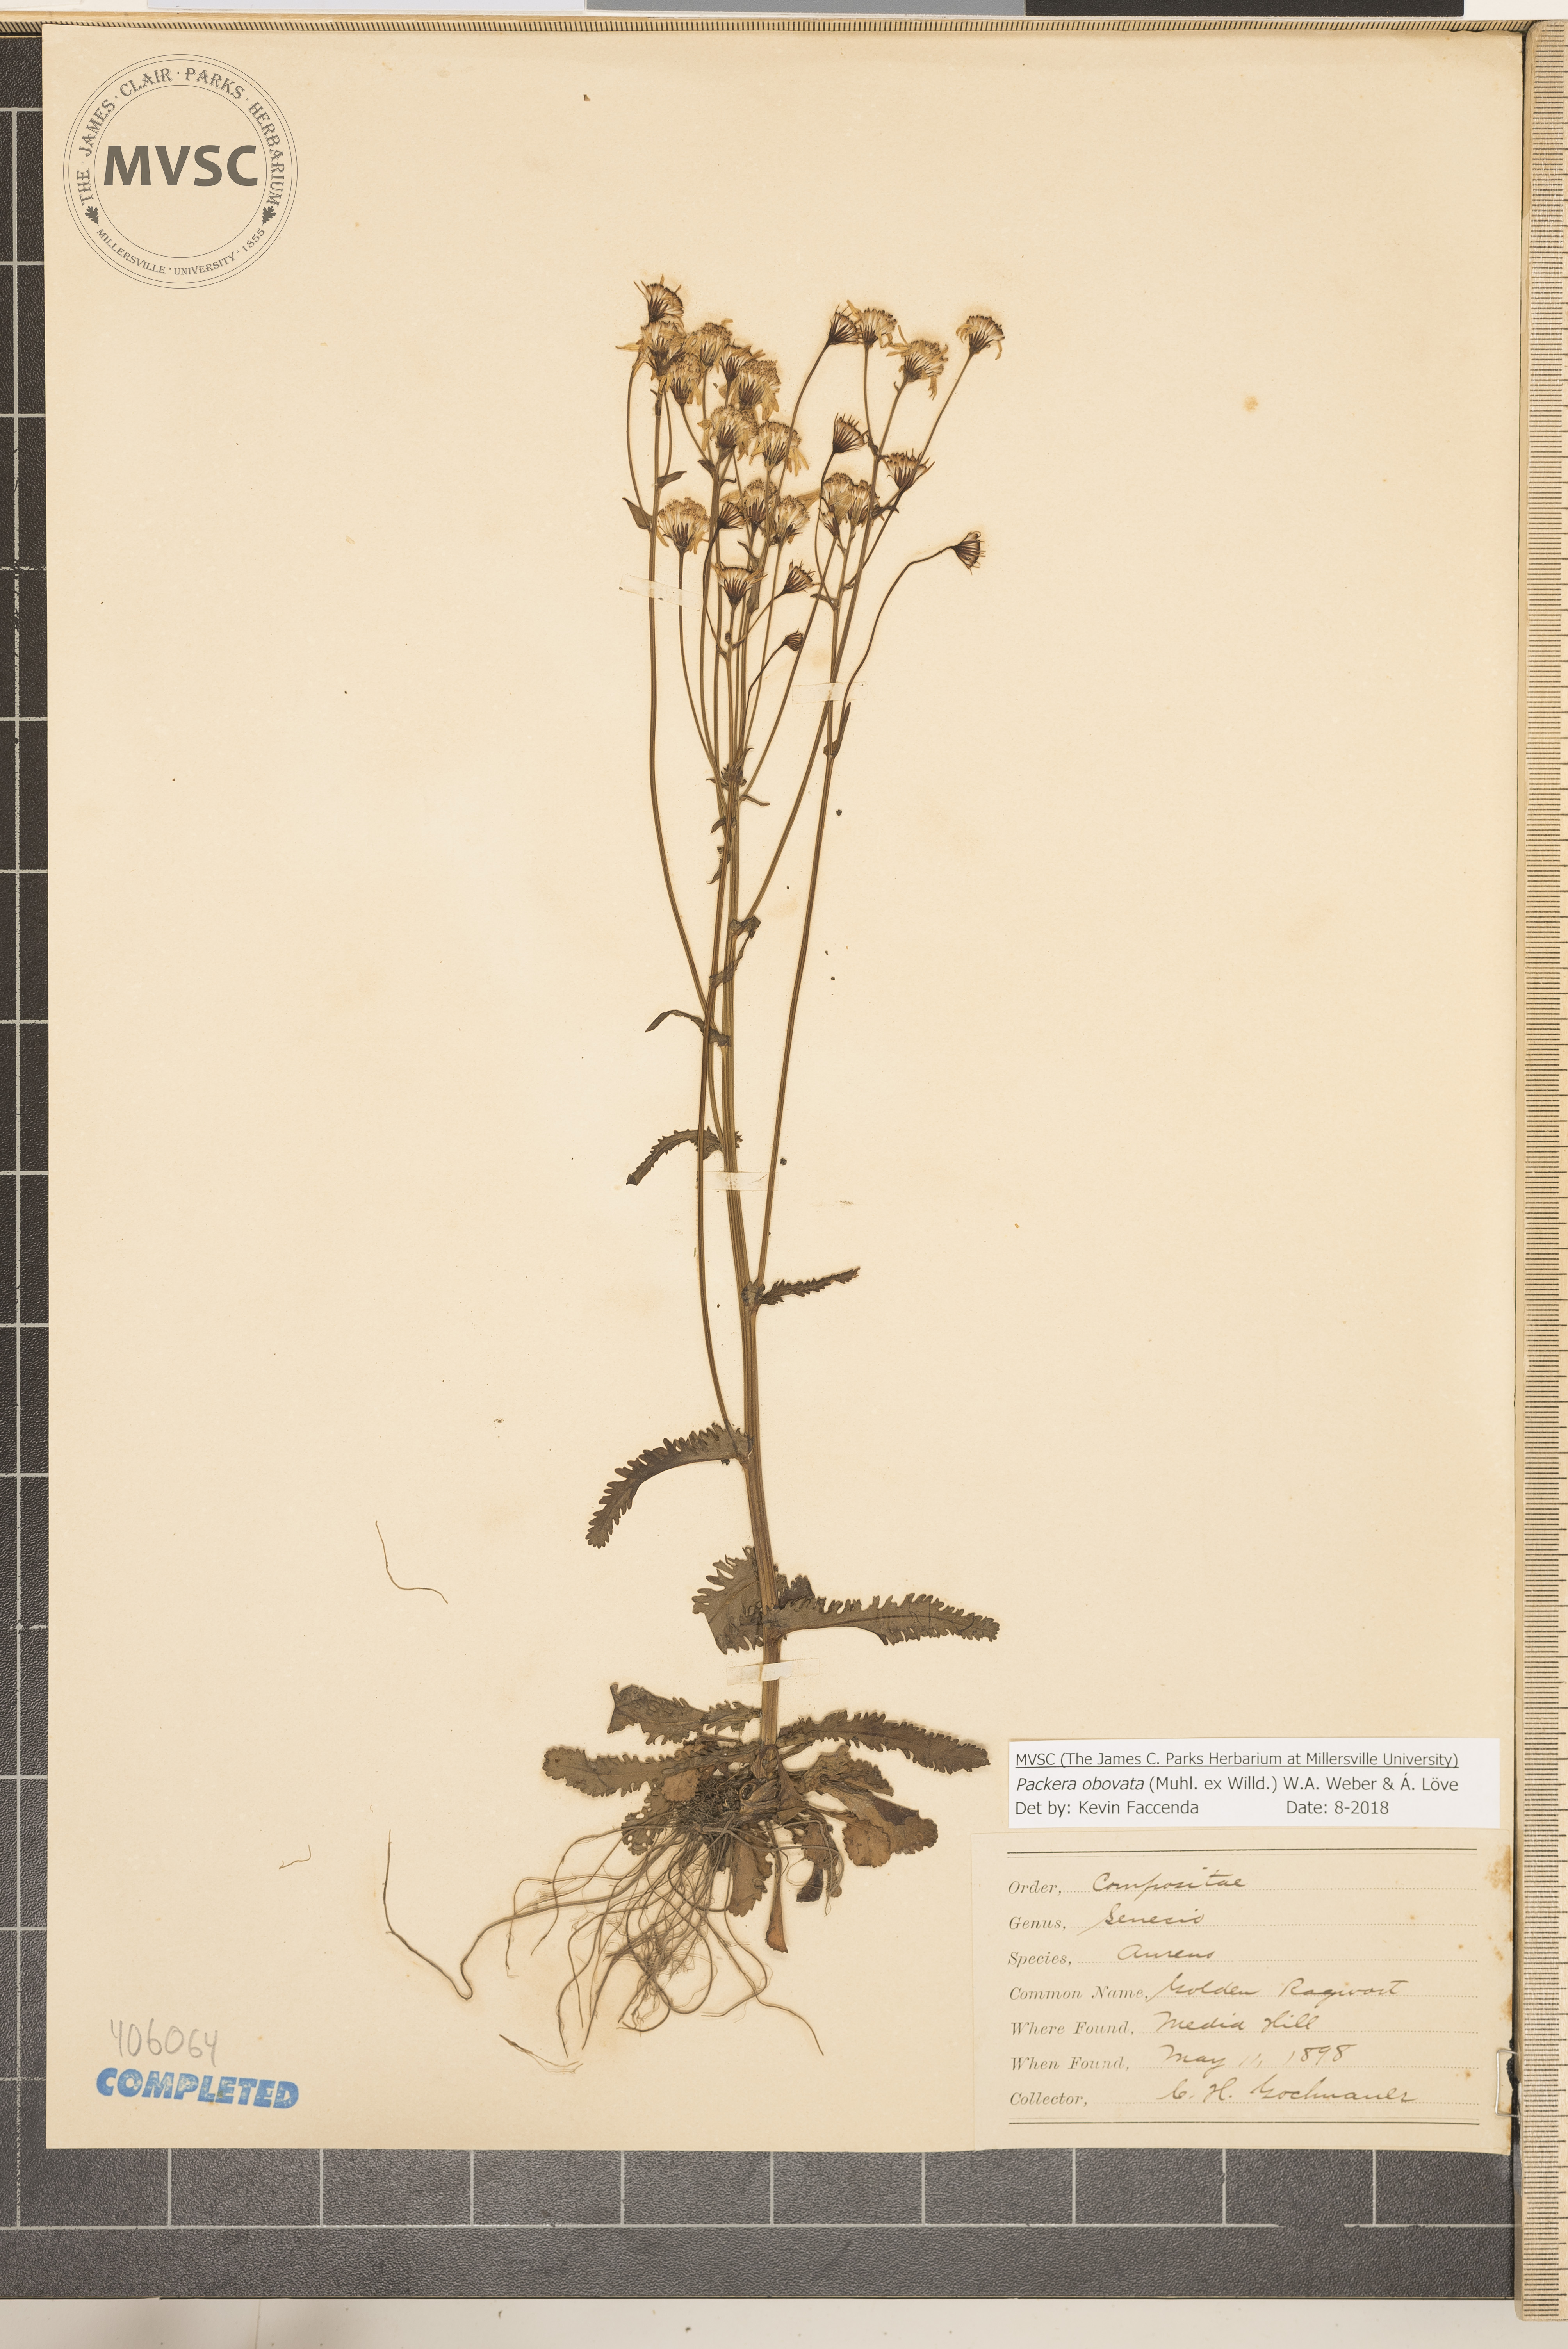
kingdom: Plantae
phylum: Tracheophyta
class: Magnoliopsida
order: Asterales
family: Asteraceae
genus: Packera
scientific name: Packera obovata
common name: Groundsel
